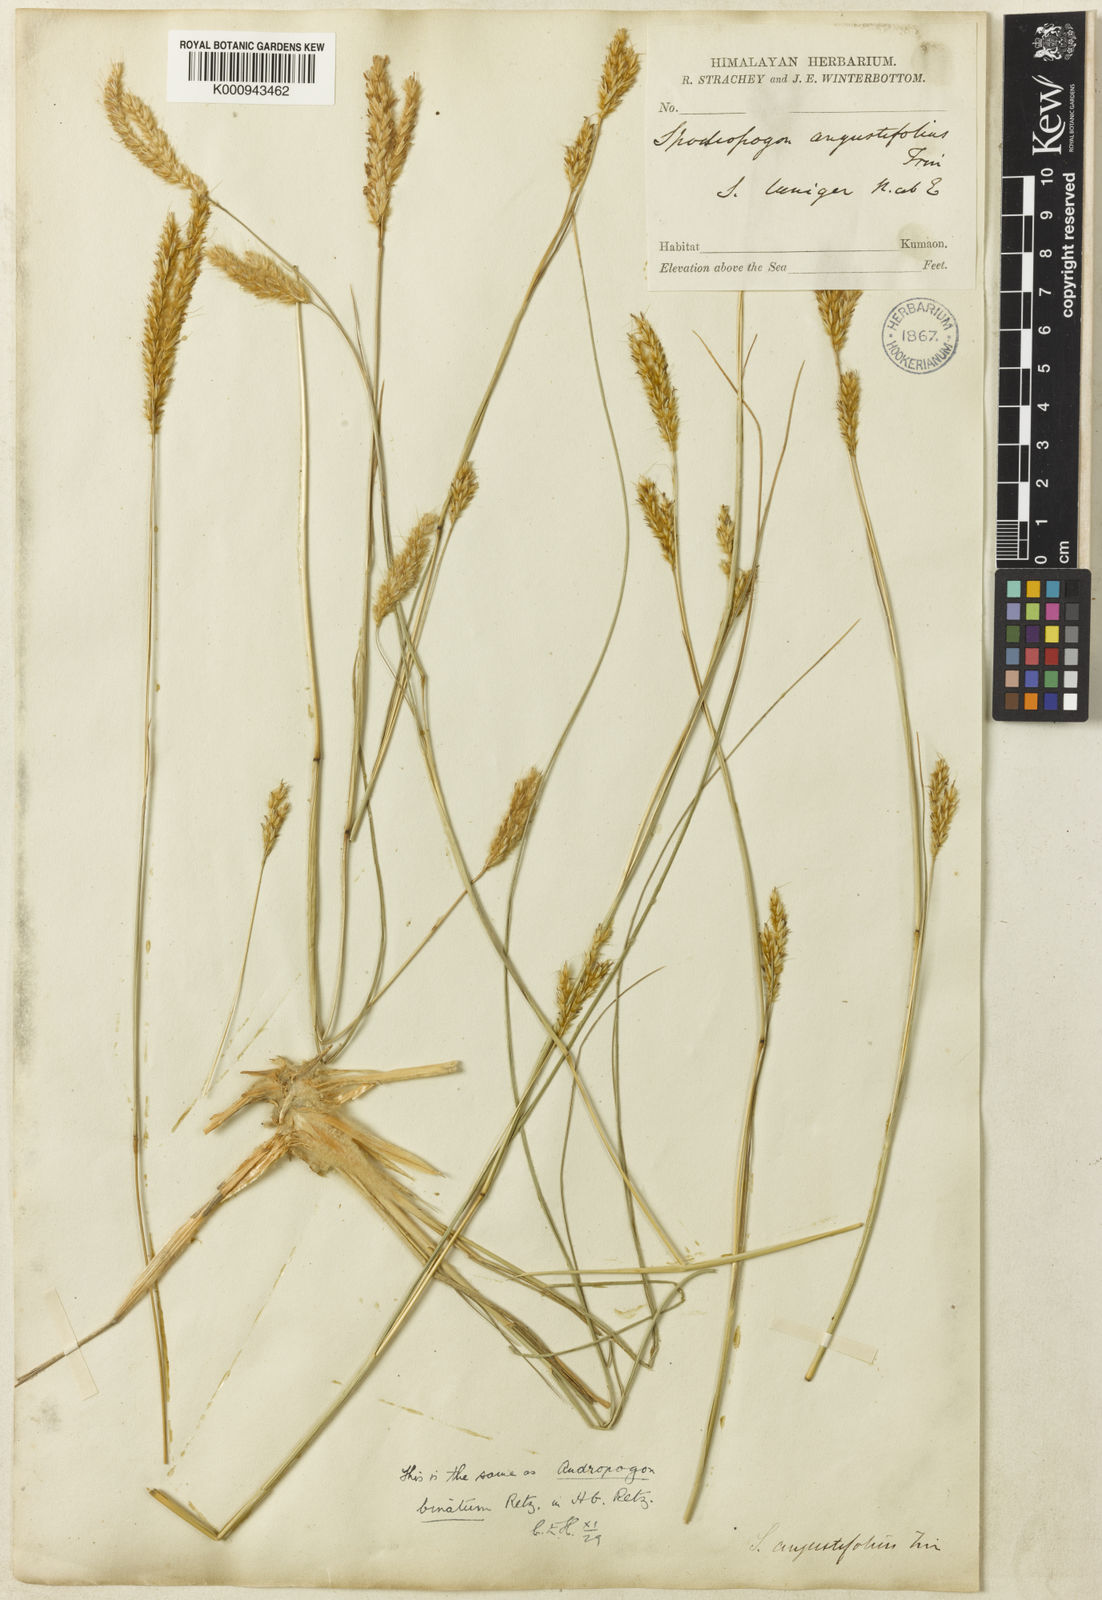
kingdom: Plantae
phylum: Tracheophyta
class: Liliopsida
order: Poales
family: Poaceae
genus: Eulaliopsis
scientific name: Eulaliopsis binata
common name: Baib grass
